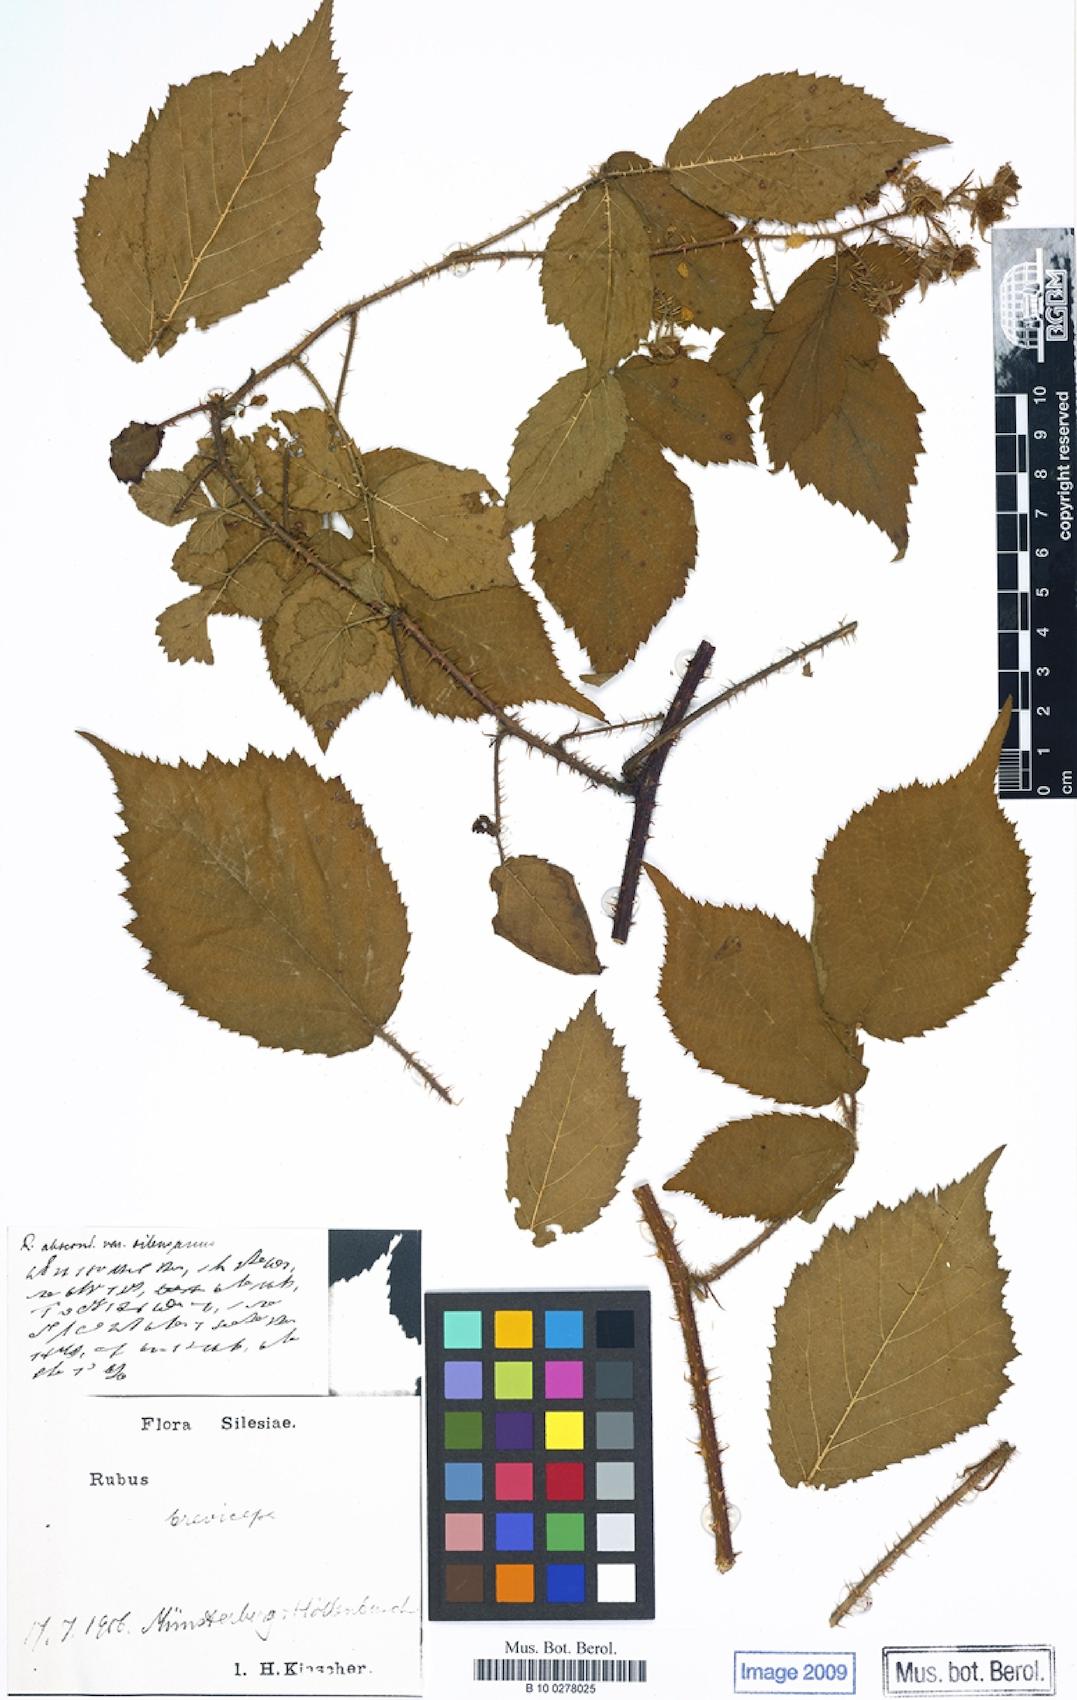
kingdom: Plantae
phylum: Tracheophyta
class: Magnoliopsida
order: Rosales
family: Rosaceae
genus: Rubus
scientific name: Rubus breviceps
